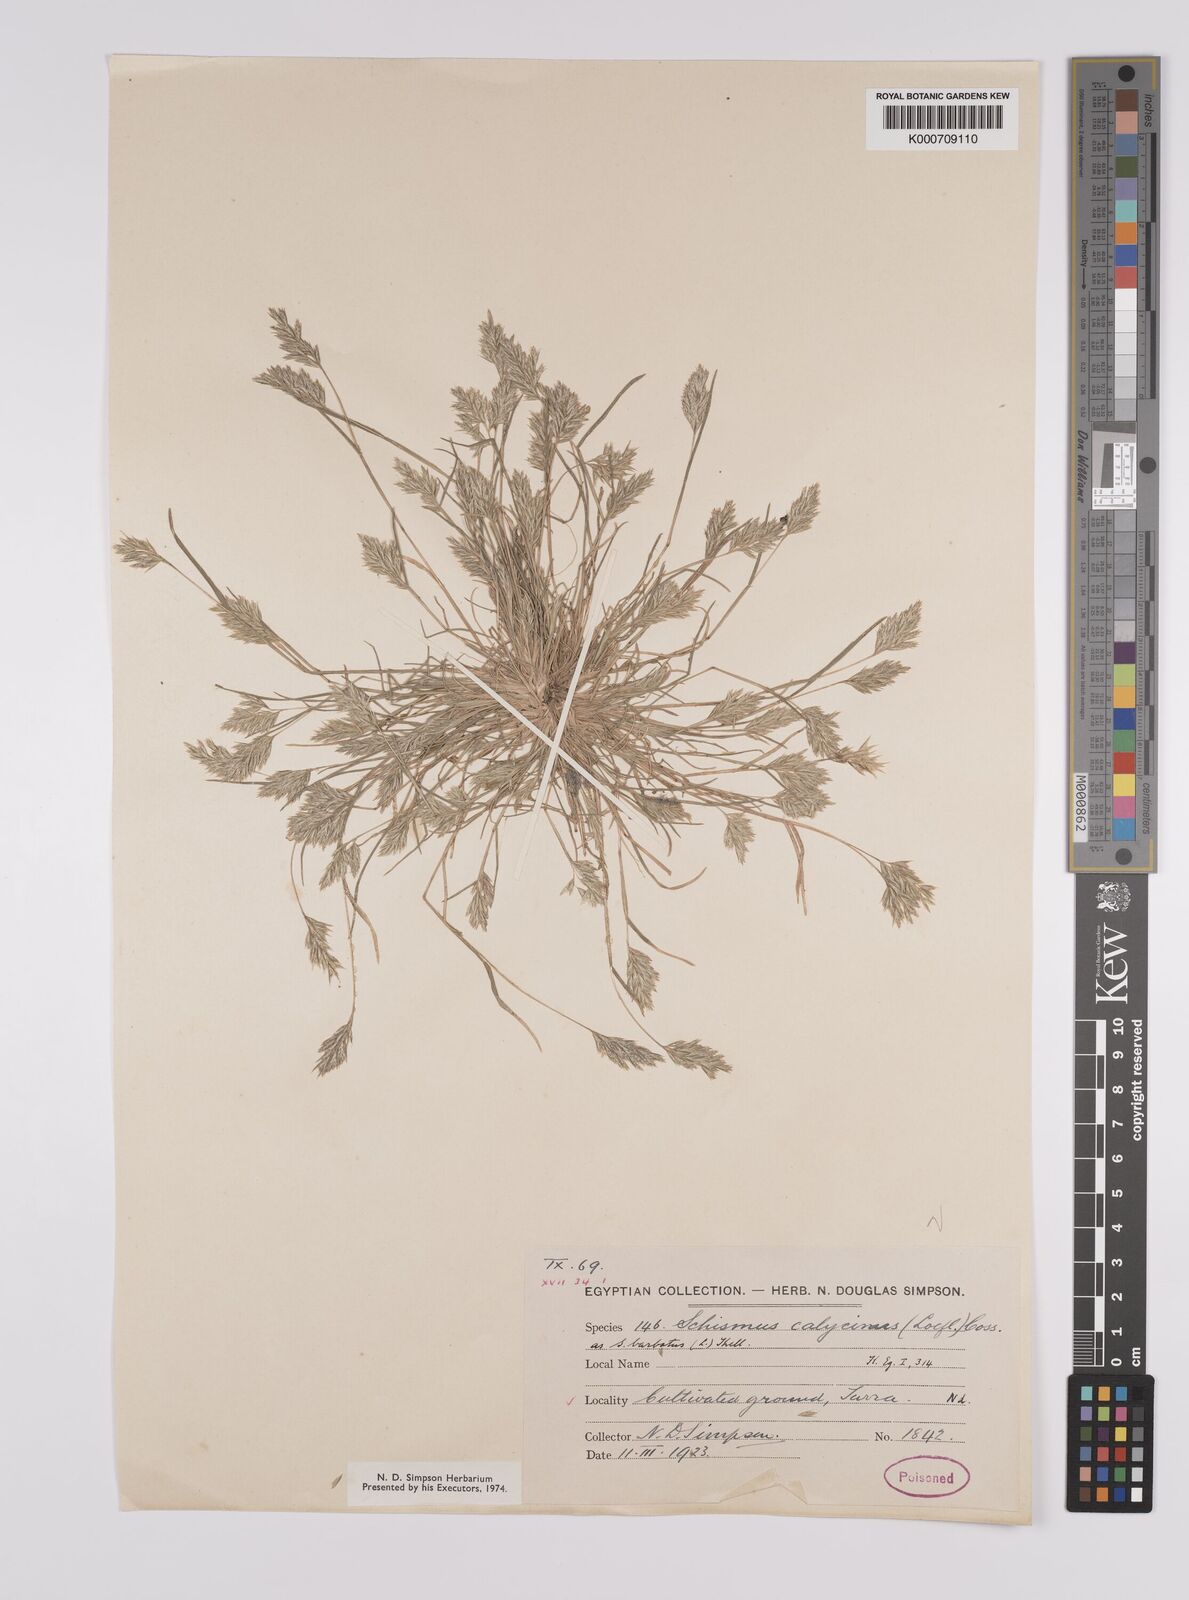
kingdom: Plantae
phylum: Tracheophyta
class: Liliopsida
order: Poales
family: Poaceae
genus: Schismus
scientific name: Schismus arabicus
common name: Arabian schismus
